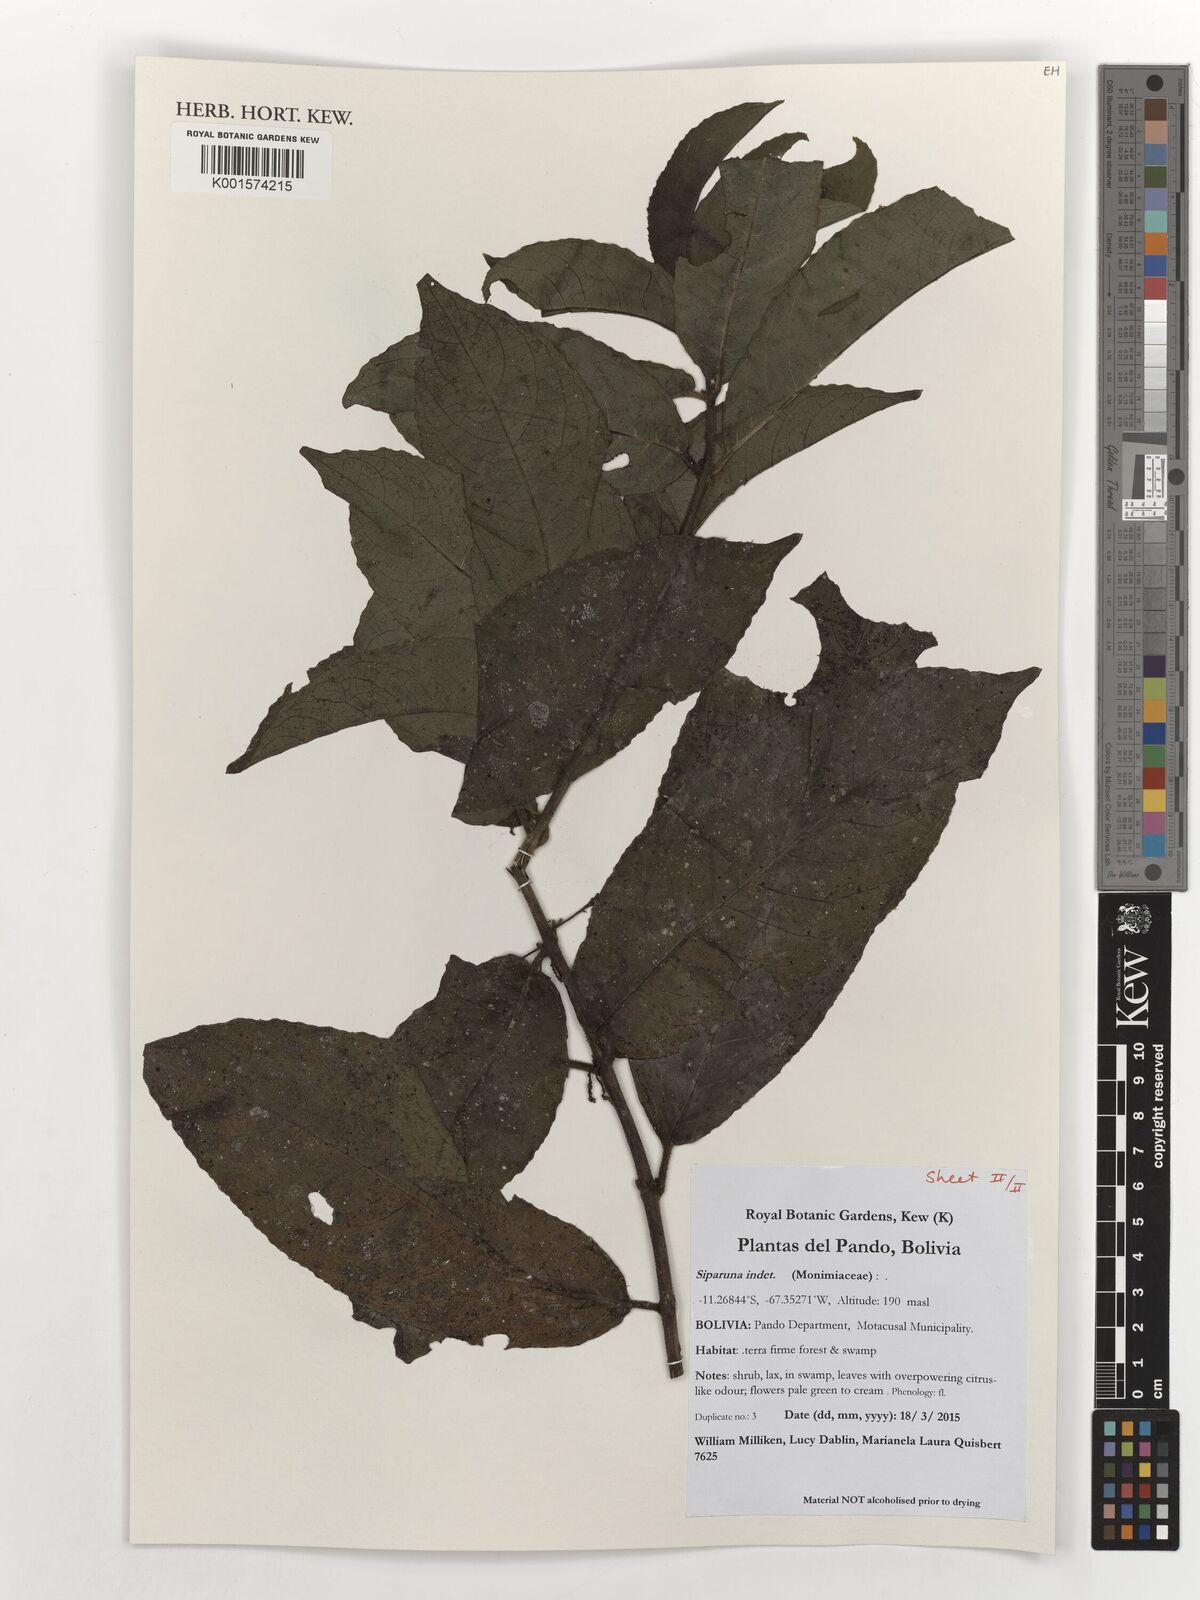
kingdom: Plantae
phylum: Tracheophyta
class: Magnoliopsida
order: Laurales
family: Siparunaceae
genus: Siparuna
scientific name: Siparuna
